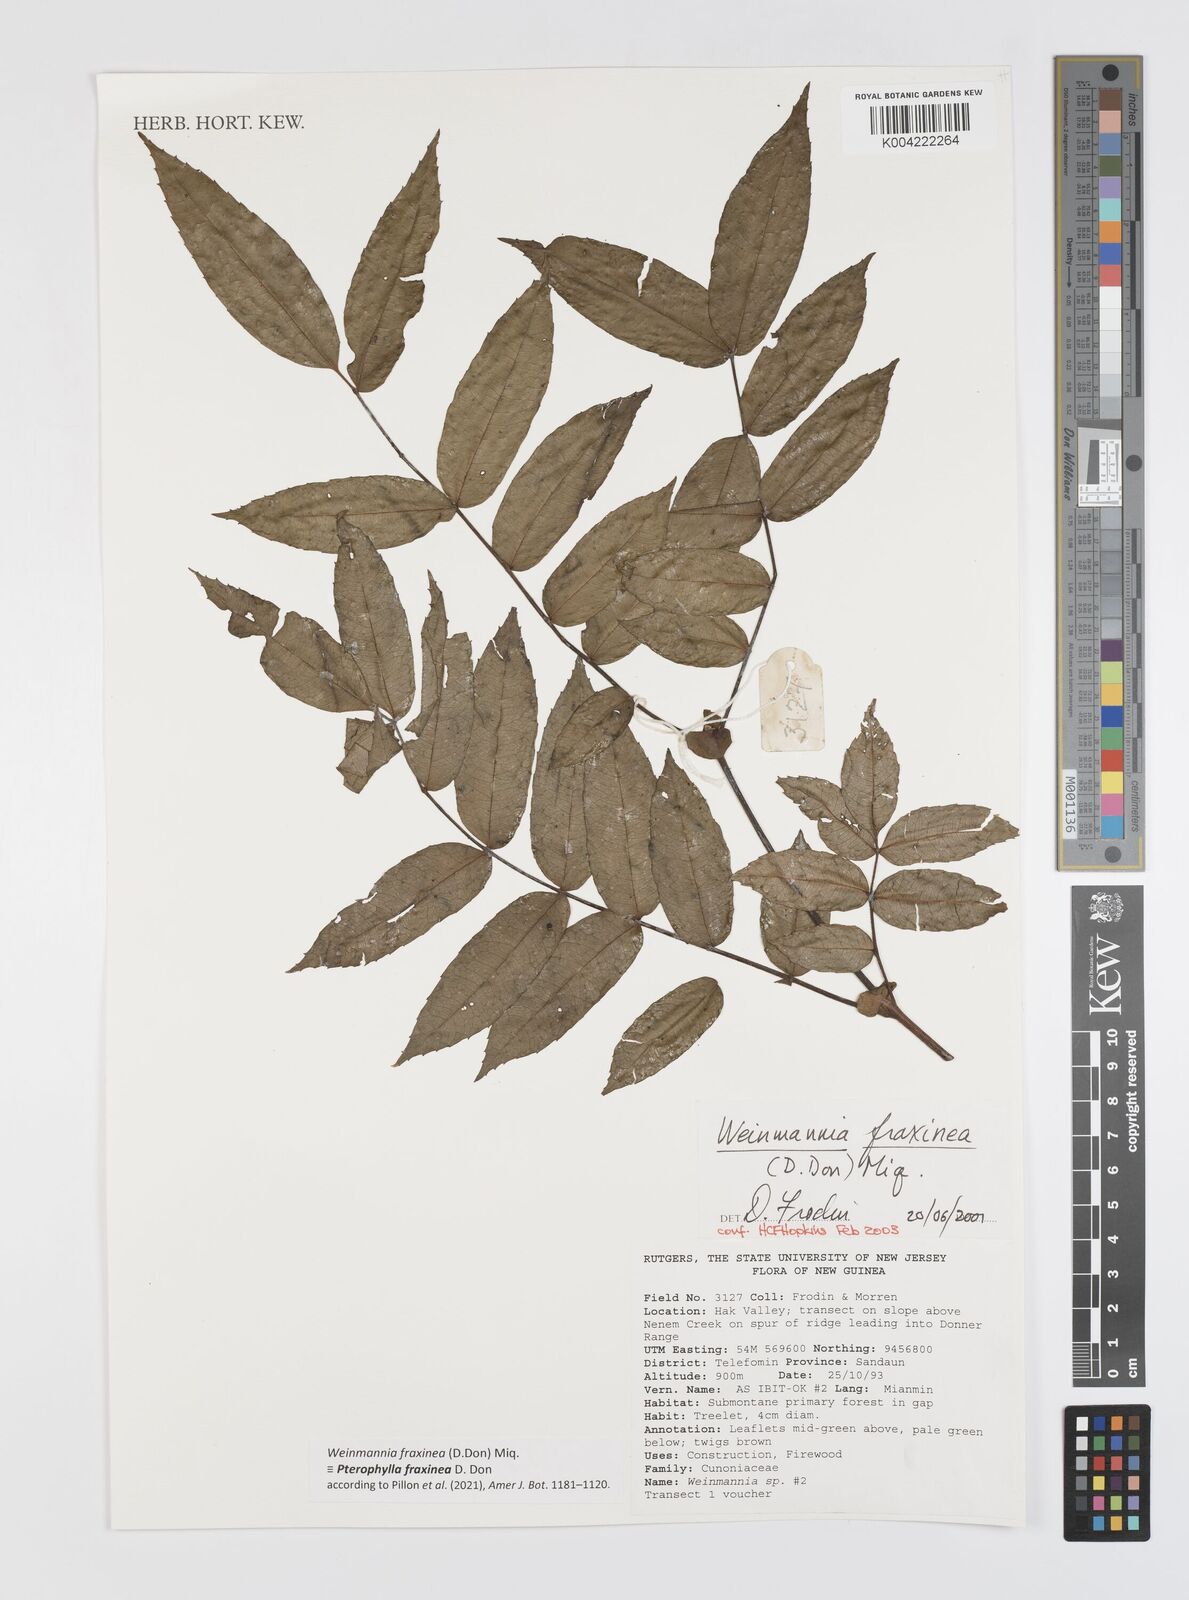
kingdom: Plantae
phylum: Tracheophyta
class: Magnoliopsida
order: Oxalidales
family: Cunoniaceae
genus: Pterophylla
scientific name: Pterophylla fraxinea
